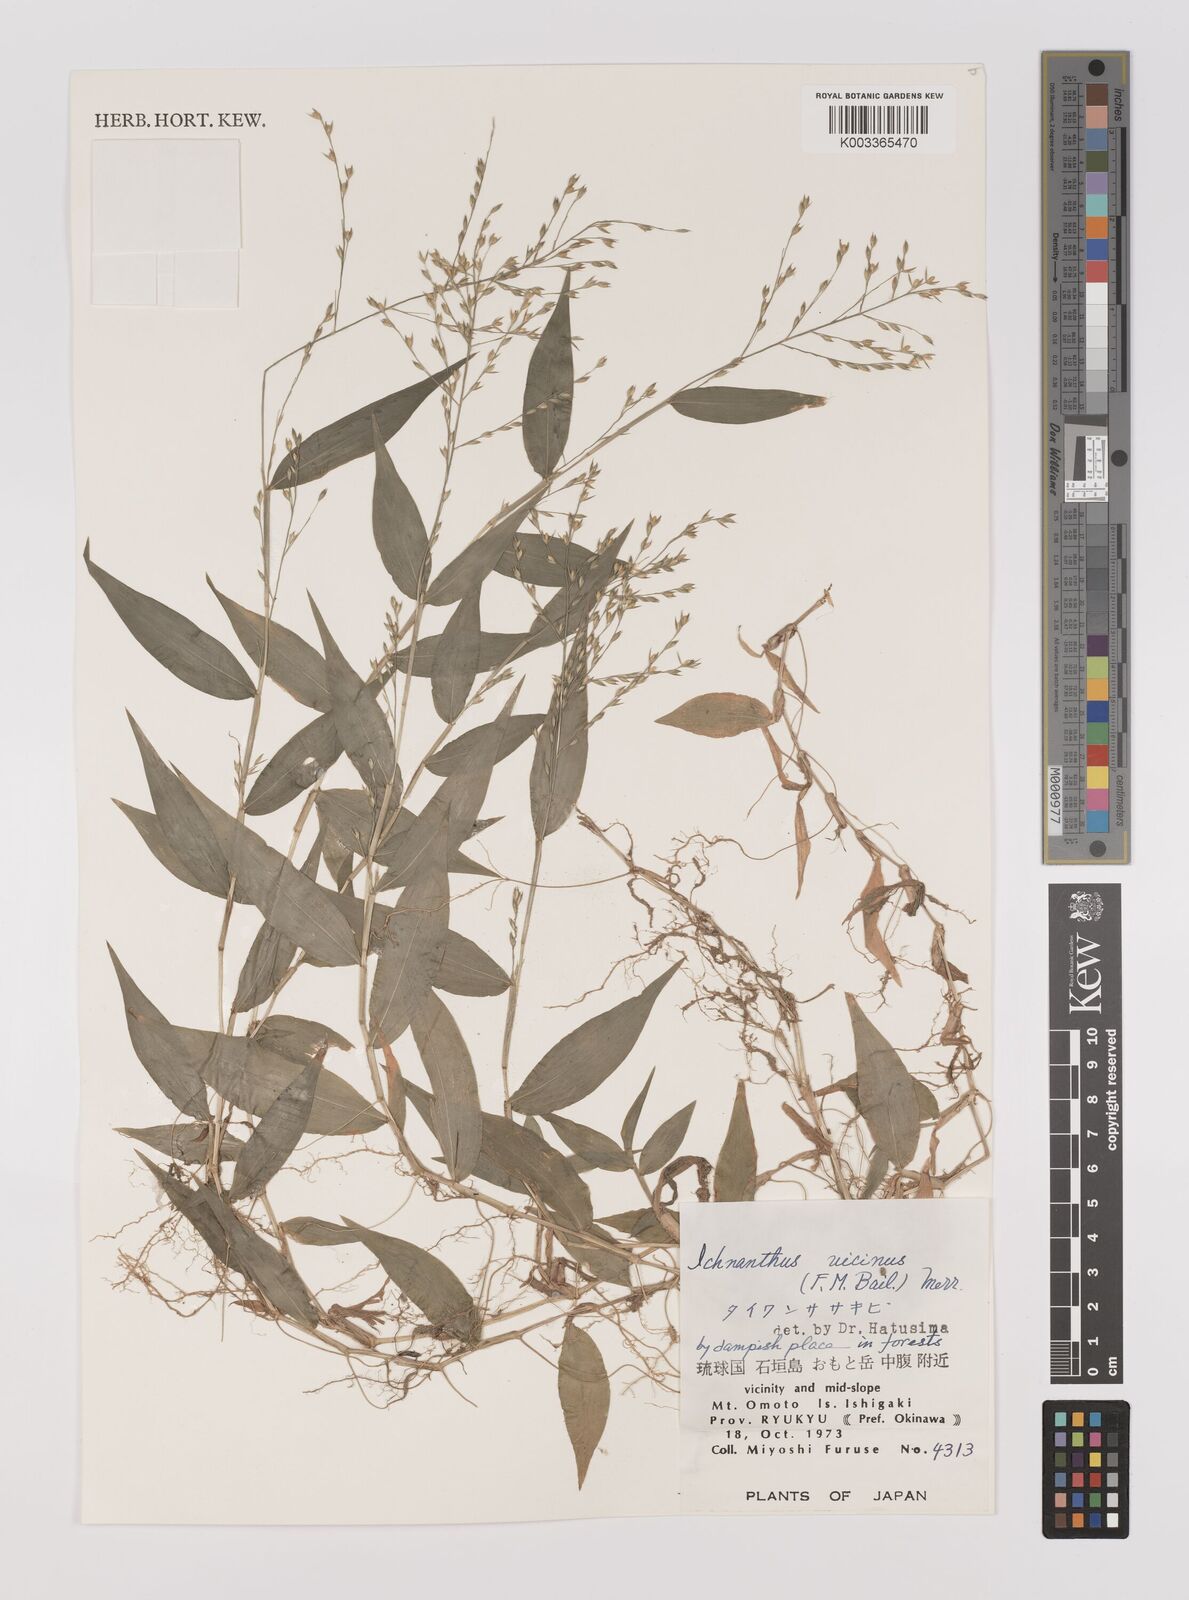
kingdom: Plantae
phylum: Tracheophyta
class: Liliopsida
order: Poales
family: Poaceae
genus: Ichnanthus
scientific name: Ichnanthus pallens
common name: Water grass
